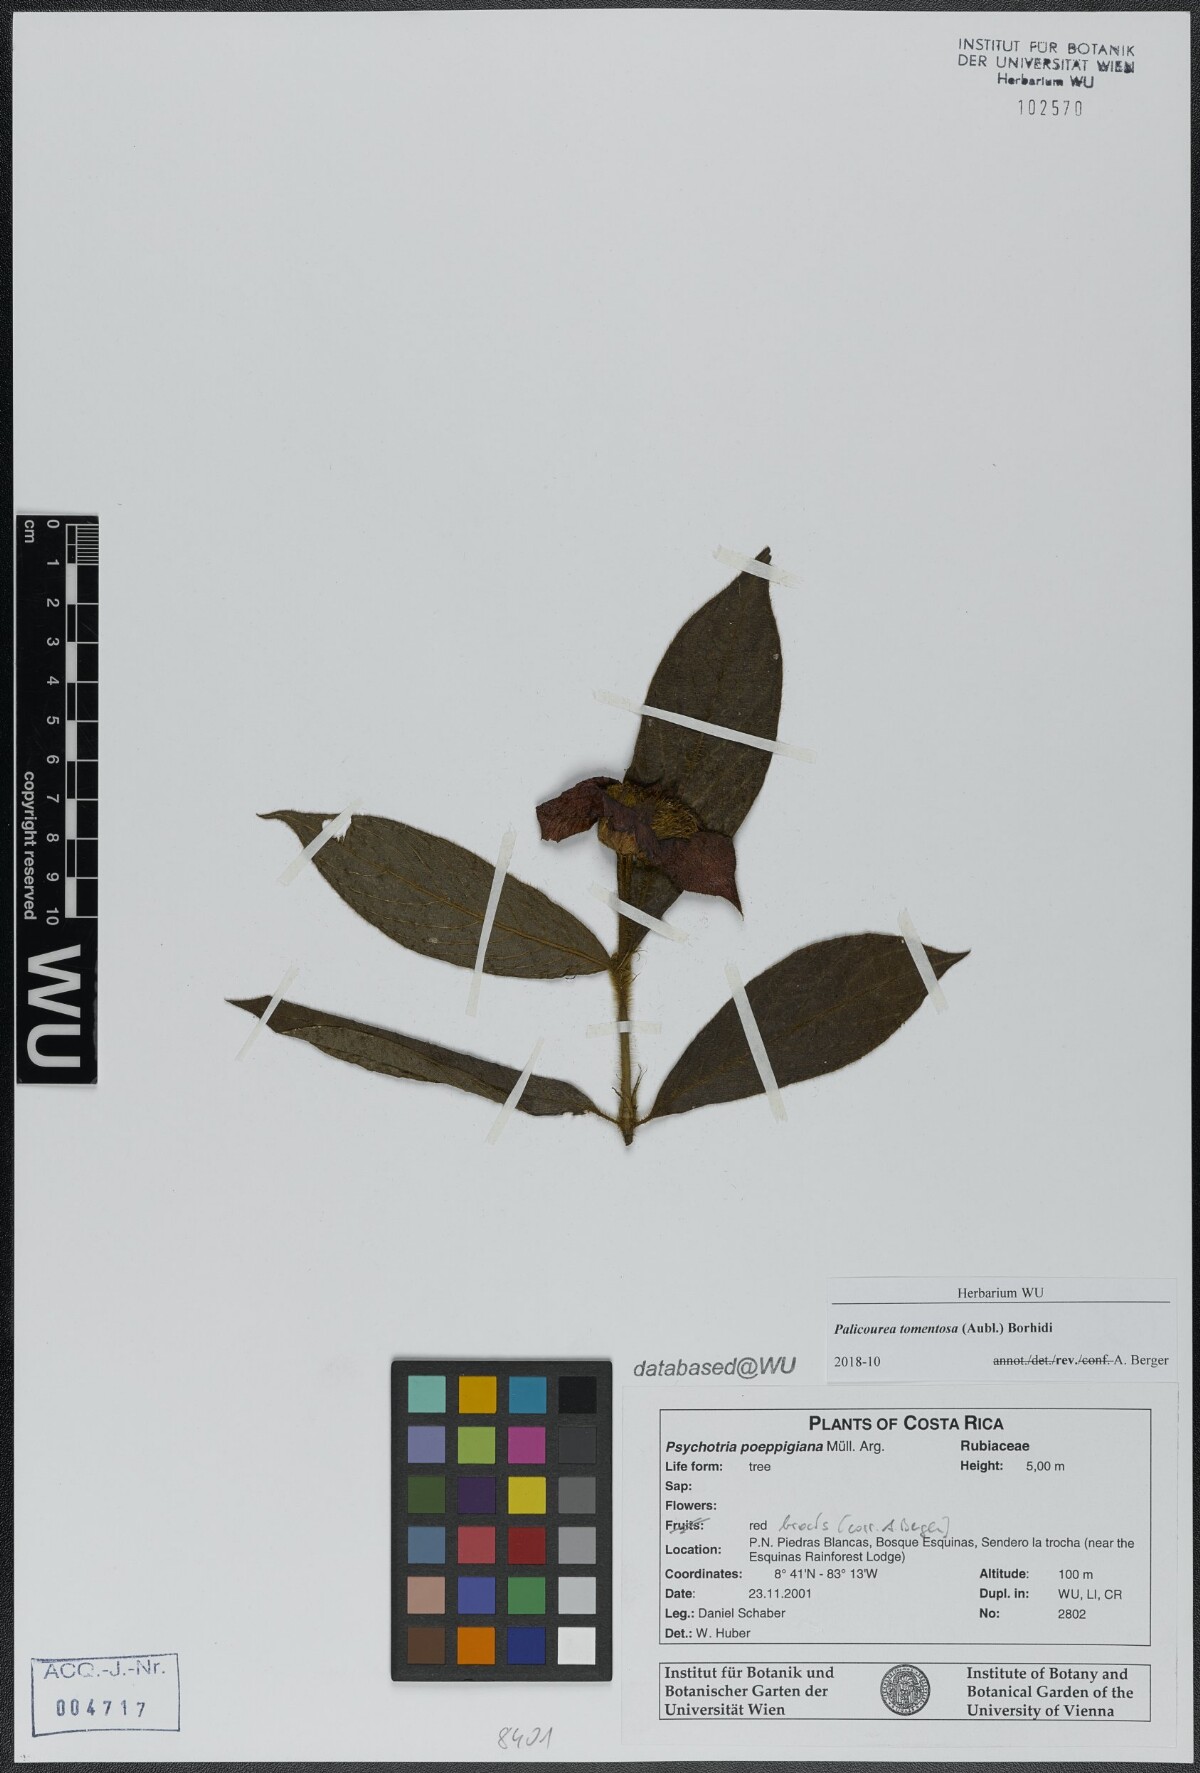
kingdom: Plantae
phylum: Tracheophyta
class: Magnoliopsida
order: Gentianales
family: Rubiaceae
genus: Palicourea
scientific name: Palicourea tomentosa
